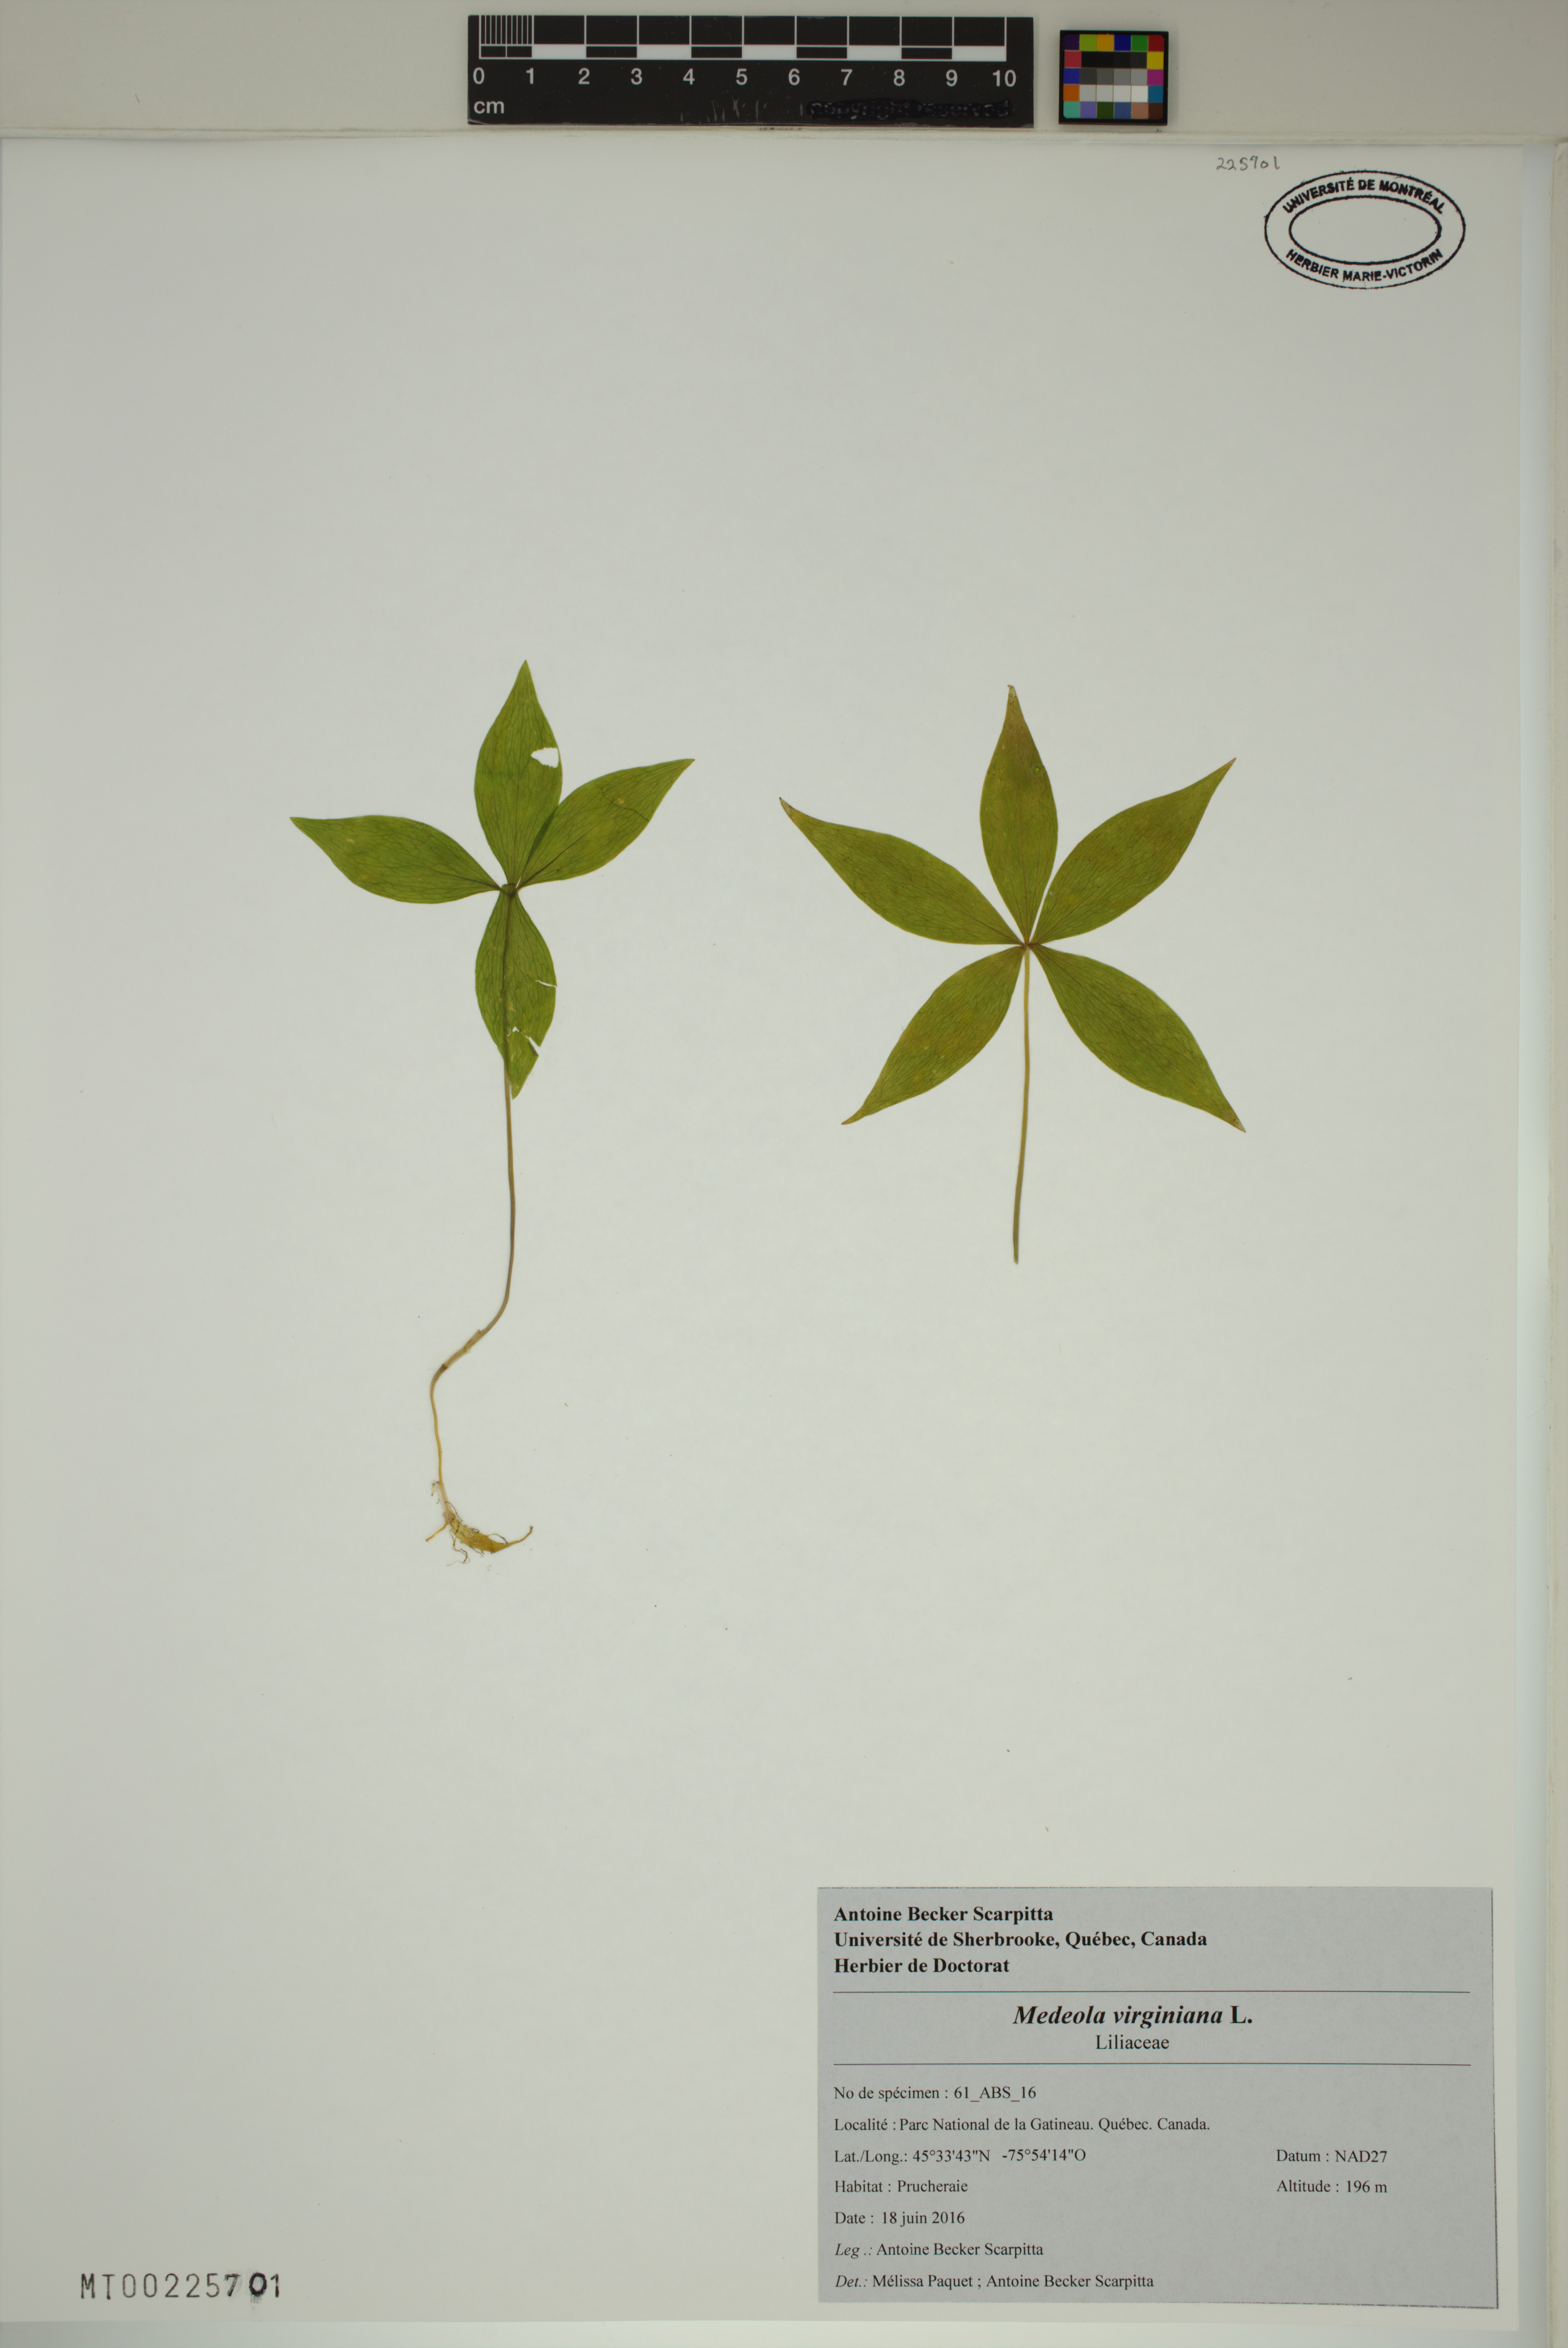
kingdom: Plantae
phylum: Tracheophyta
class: Liliopsida
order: Liliales
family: Liliaceae
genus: Medeola
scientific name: Medeola virginiana
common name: Indian cucumber-root
